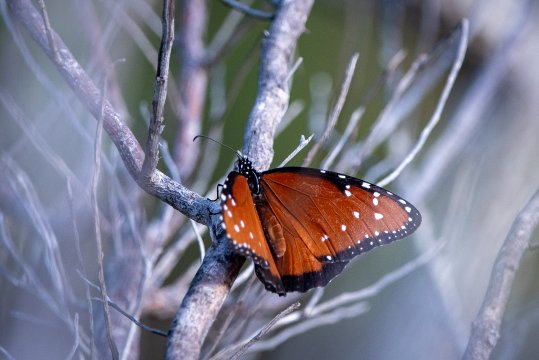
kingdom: Animalia
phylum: Arthropoda
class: Insecta
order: Lepidoptera
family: Nymphalidae
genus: Danaus
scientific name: Danaus gilippus
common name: Queen
